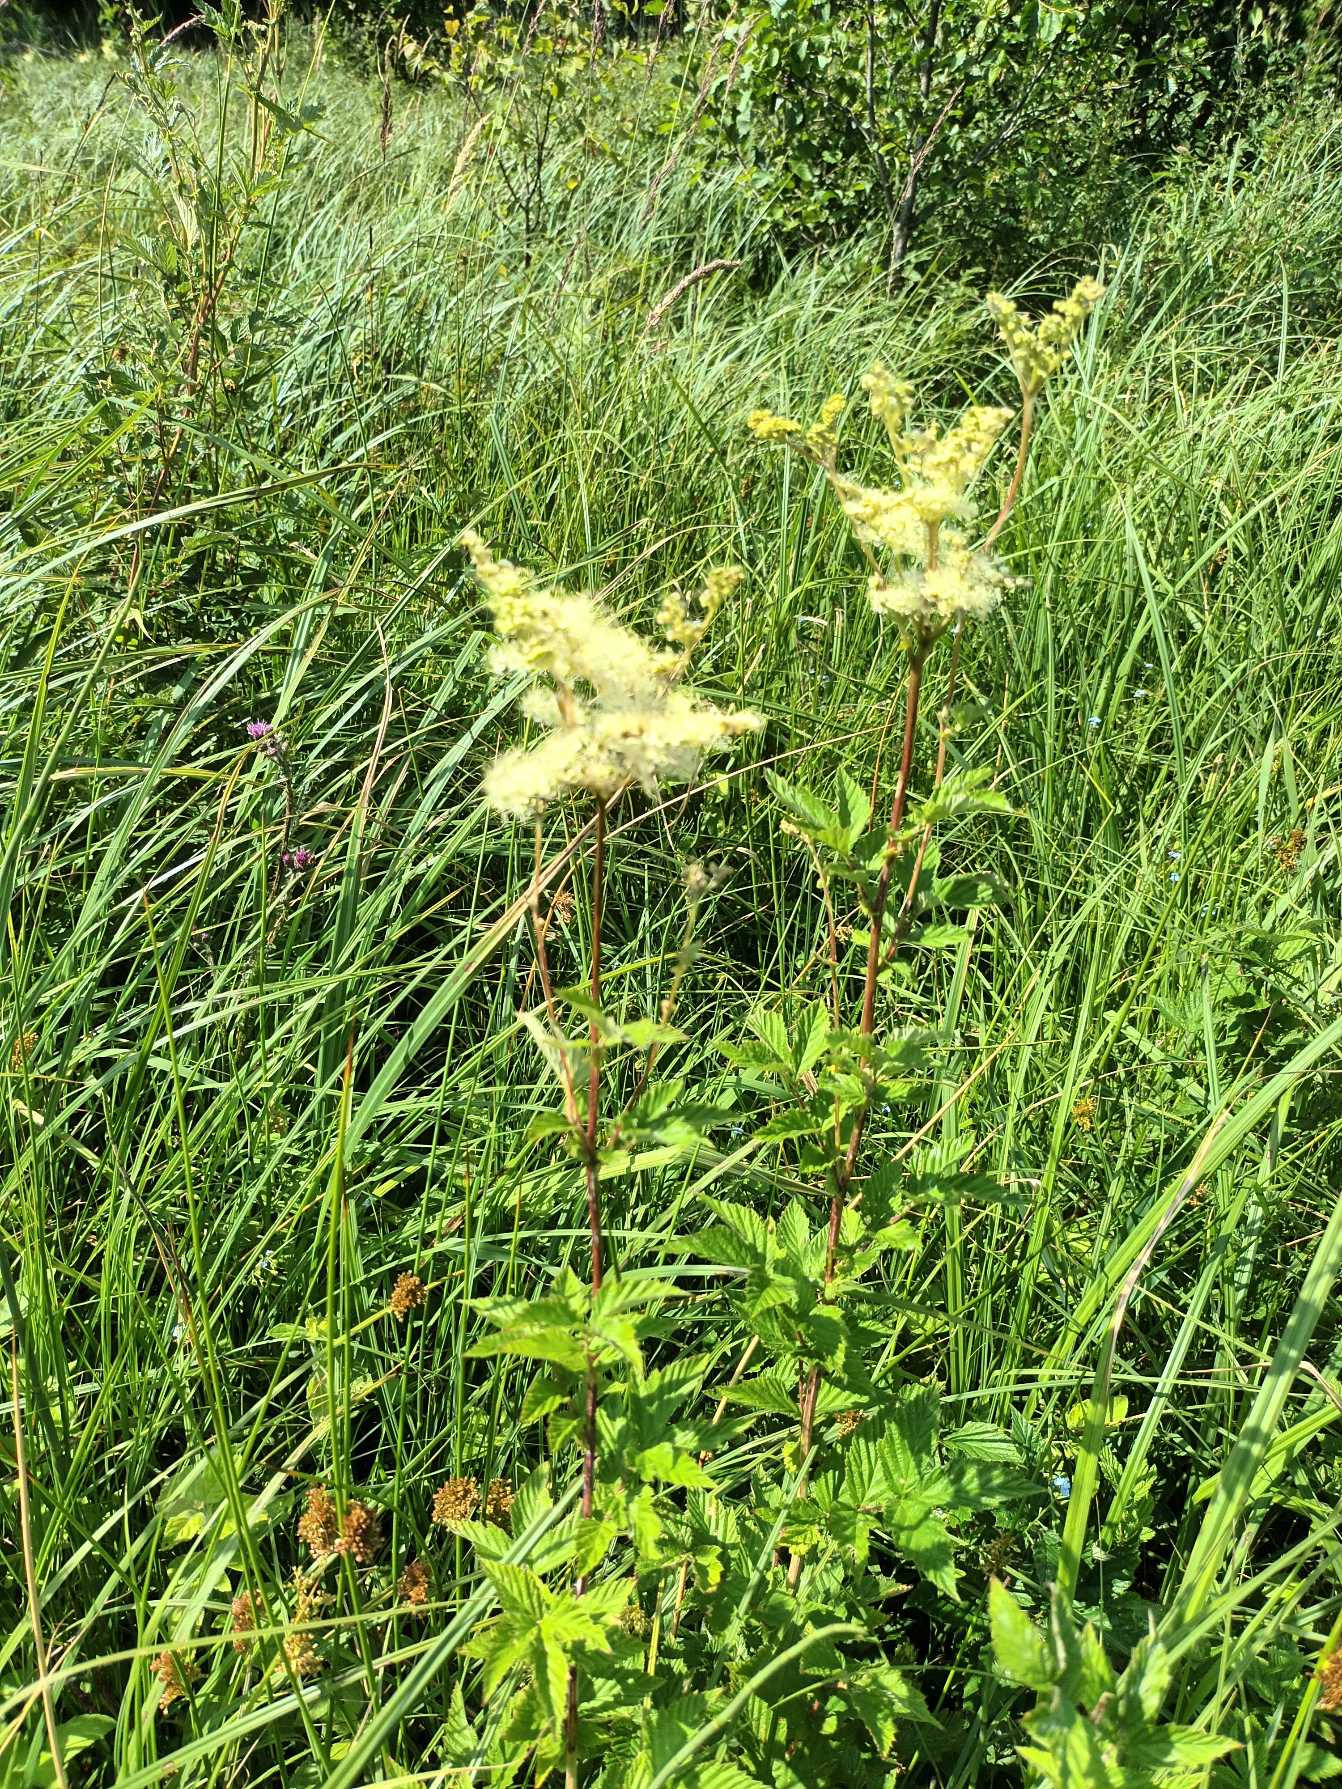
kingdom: Plantae
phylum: Tracheophyta
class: Magnoliopsida
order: Rosales
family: Rosaceae
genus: Filipendula
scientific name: Filipendula ulmaria
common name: Almindelig mjødurt
